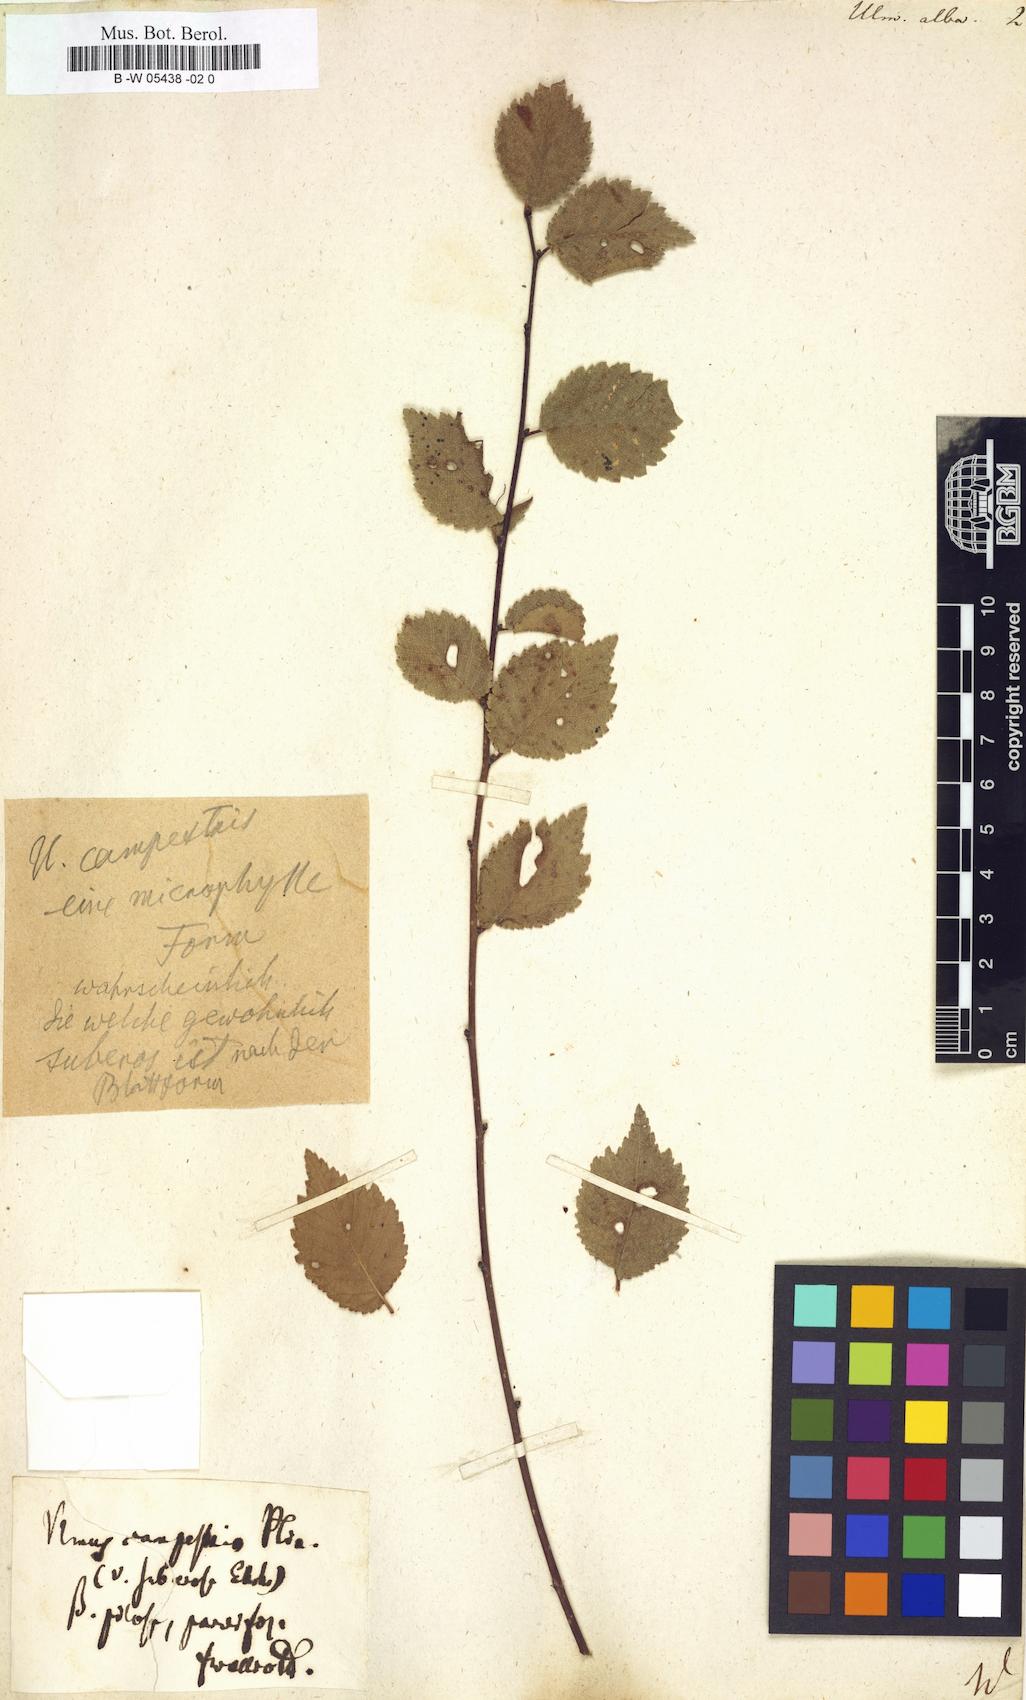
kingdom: Plantae
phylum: Tracheophyta
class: Magnoliopsida
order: Rosales
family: Ulmaceae
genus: Ulmus
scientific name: Ulmus
